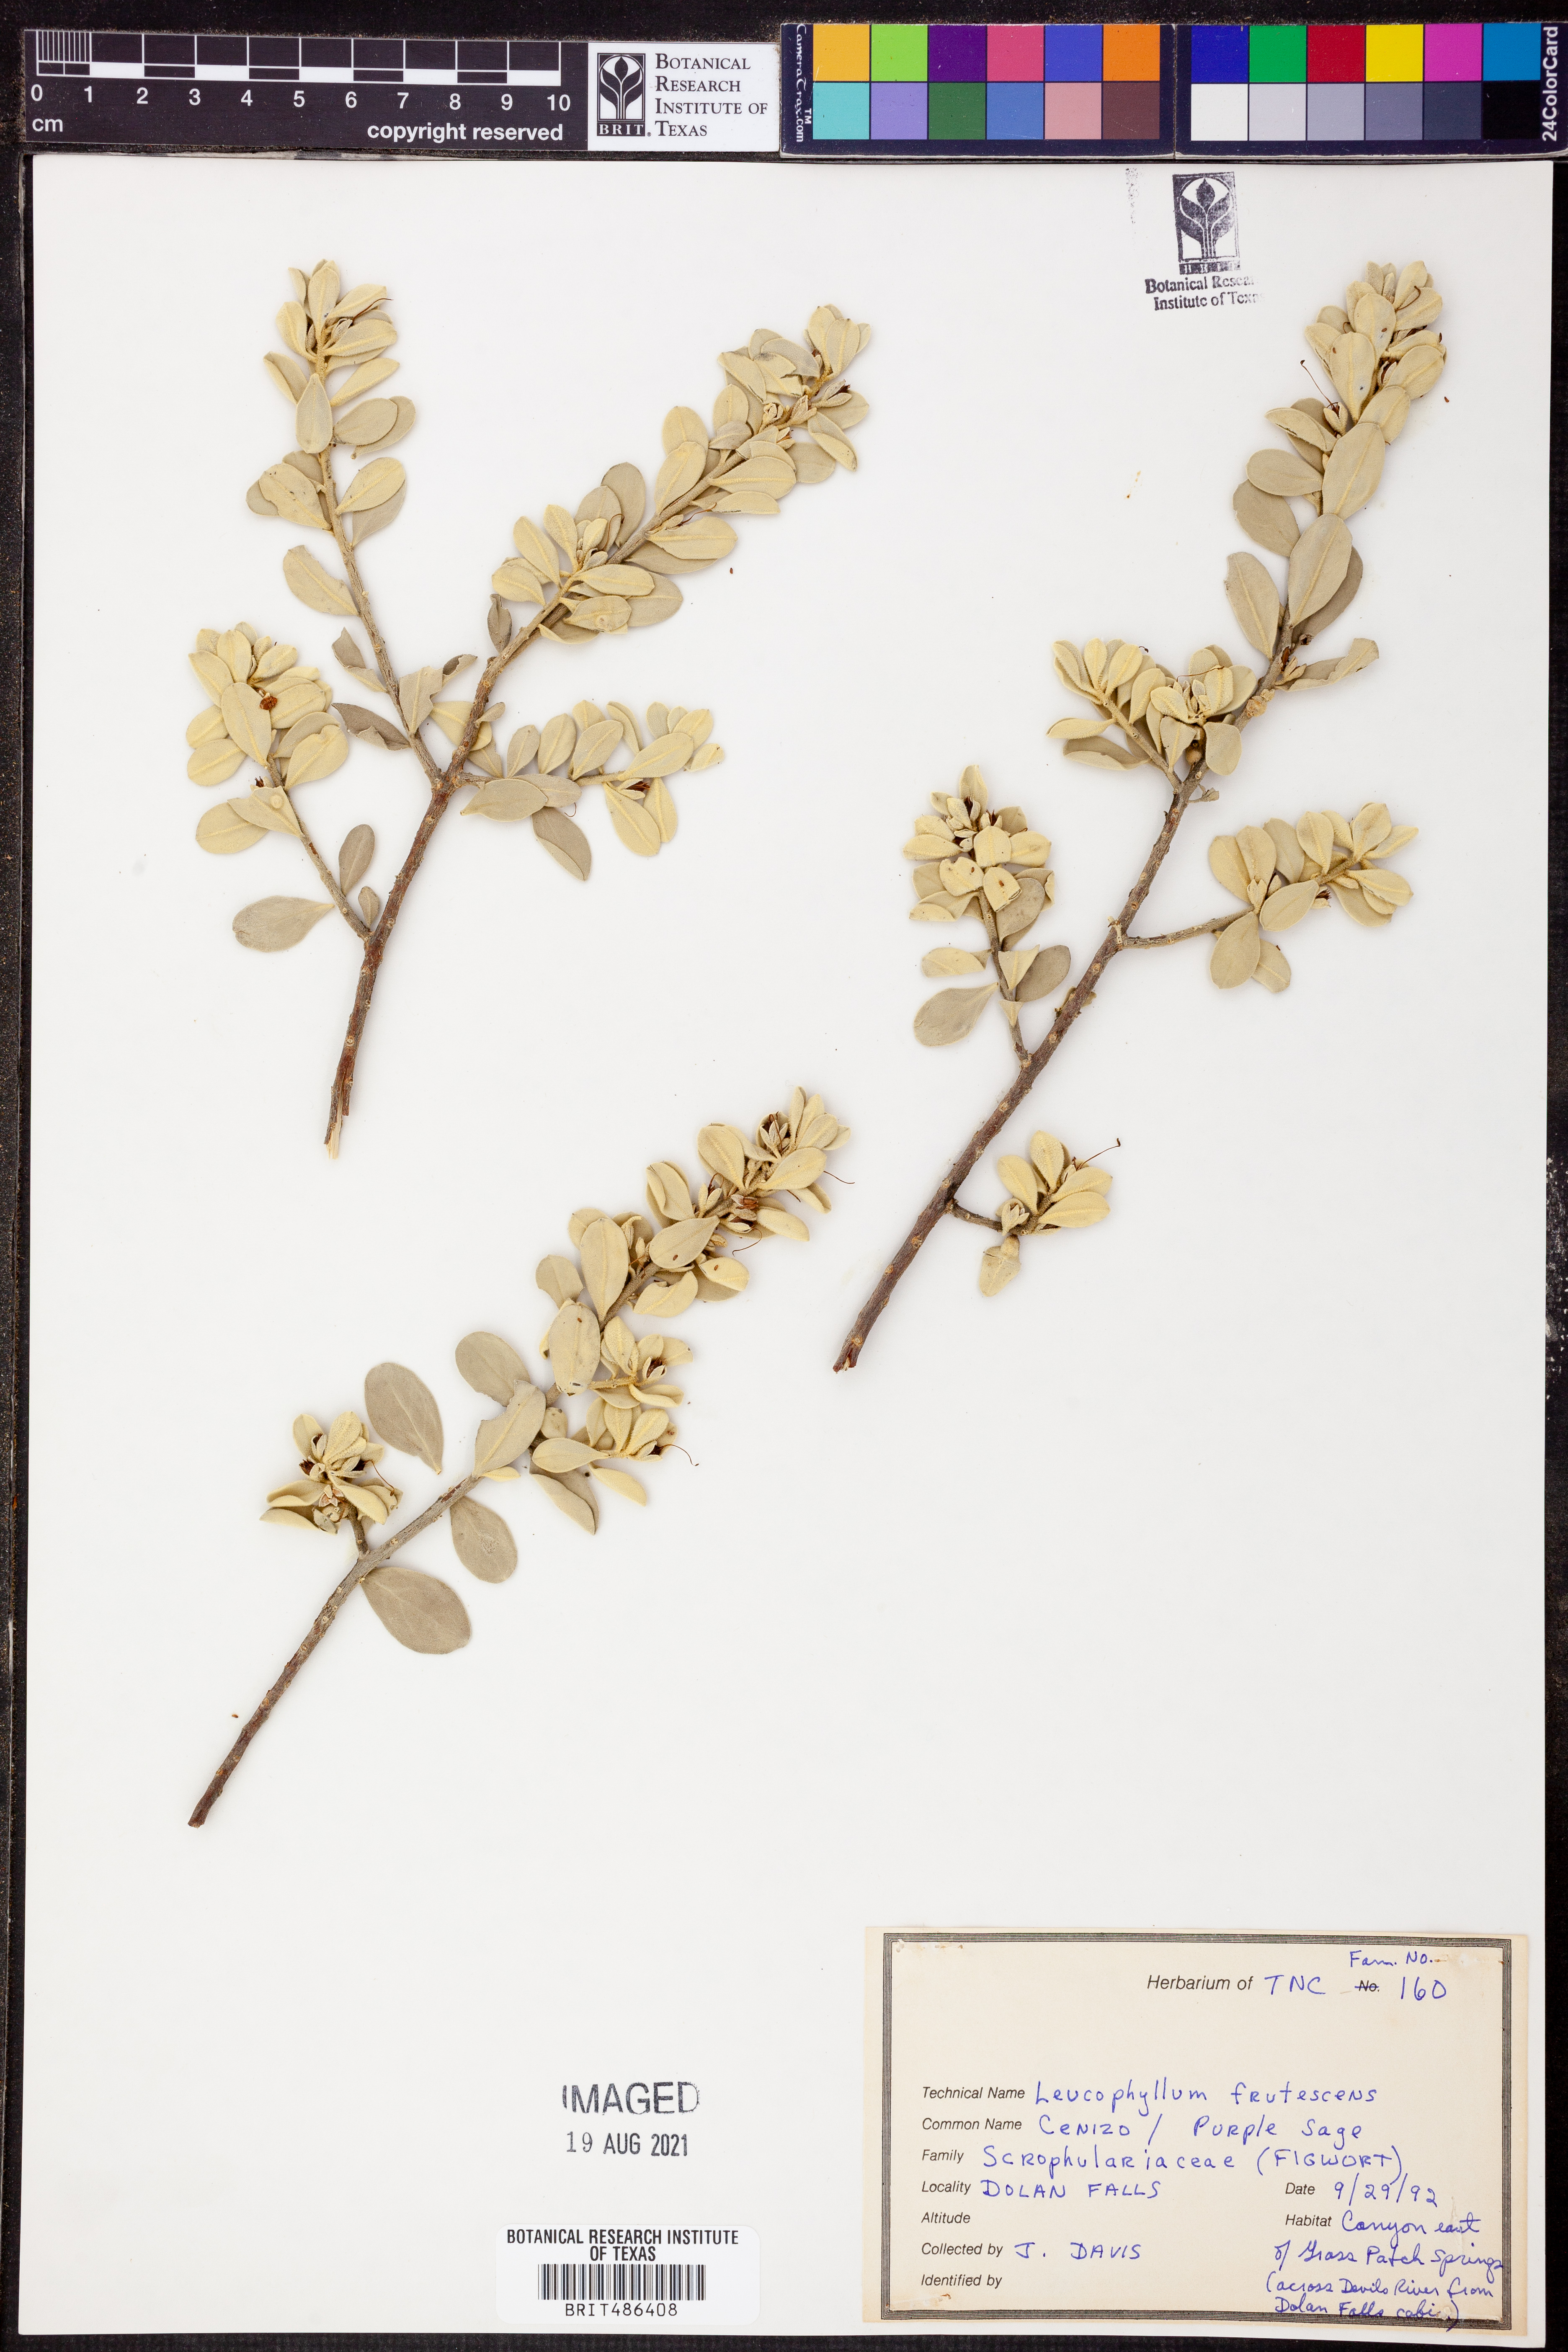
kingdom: Plantae
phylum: Tracheophyta
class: Magnoliopsida
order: Lamiales
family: Scrophulariaceae
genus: Leucophyllum
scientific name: Leucophyllum frutescens
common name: Texas silverleaf
